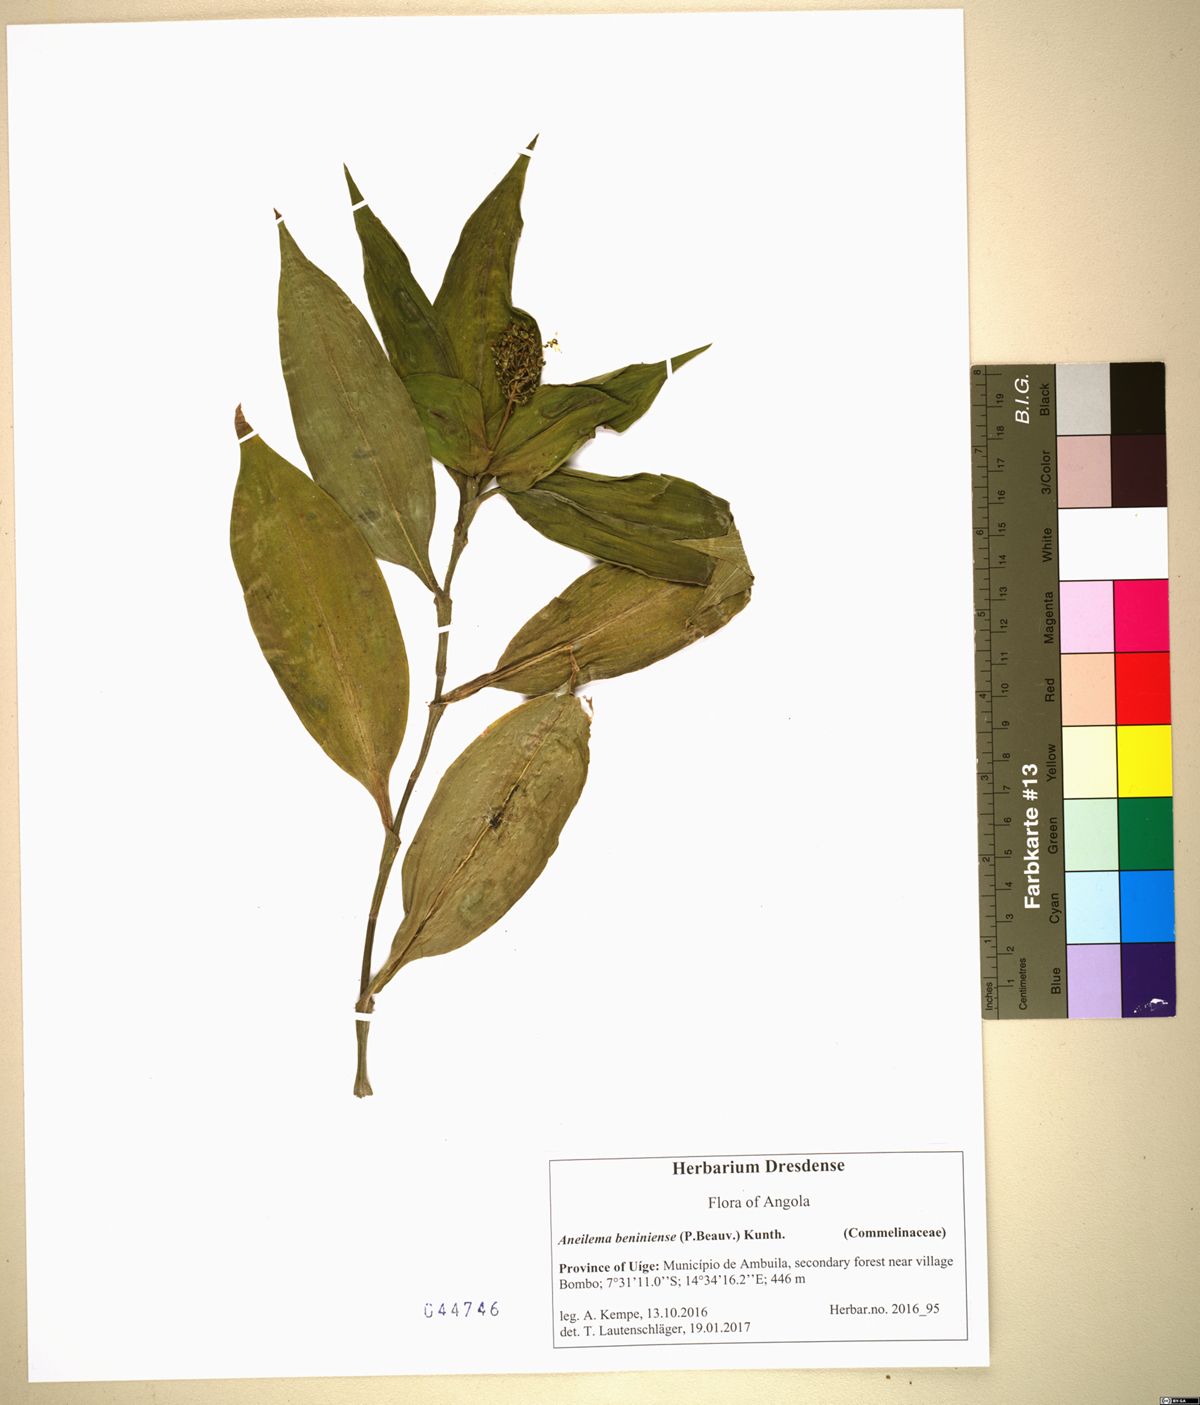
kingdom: Plantae
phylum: Tracheophyta
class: Liliopsida
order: Commelinales
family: Commelinaceae
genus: Aneilema
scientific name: Aneilema beniniense
